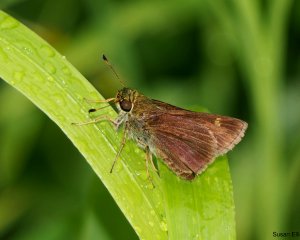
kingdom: Animalia
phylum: Arthropoda
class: Insecta
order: Lepidoptera
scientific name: Lepidoptera
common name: Butterflies
